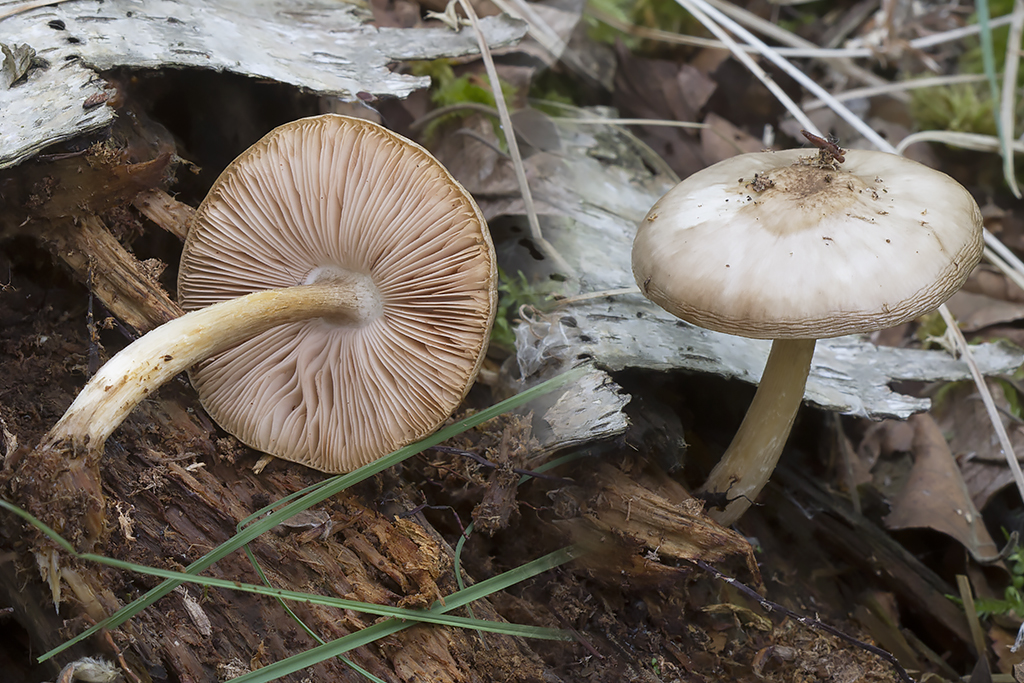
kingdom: Fungi
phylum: Basidiomycota
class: Agaricomycetes
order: Agaricales
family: Pluteaceae
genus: Pluteus
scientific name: Pluteus hongoi
